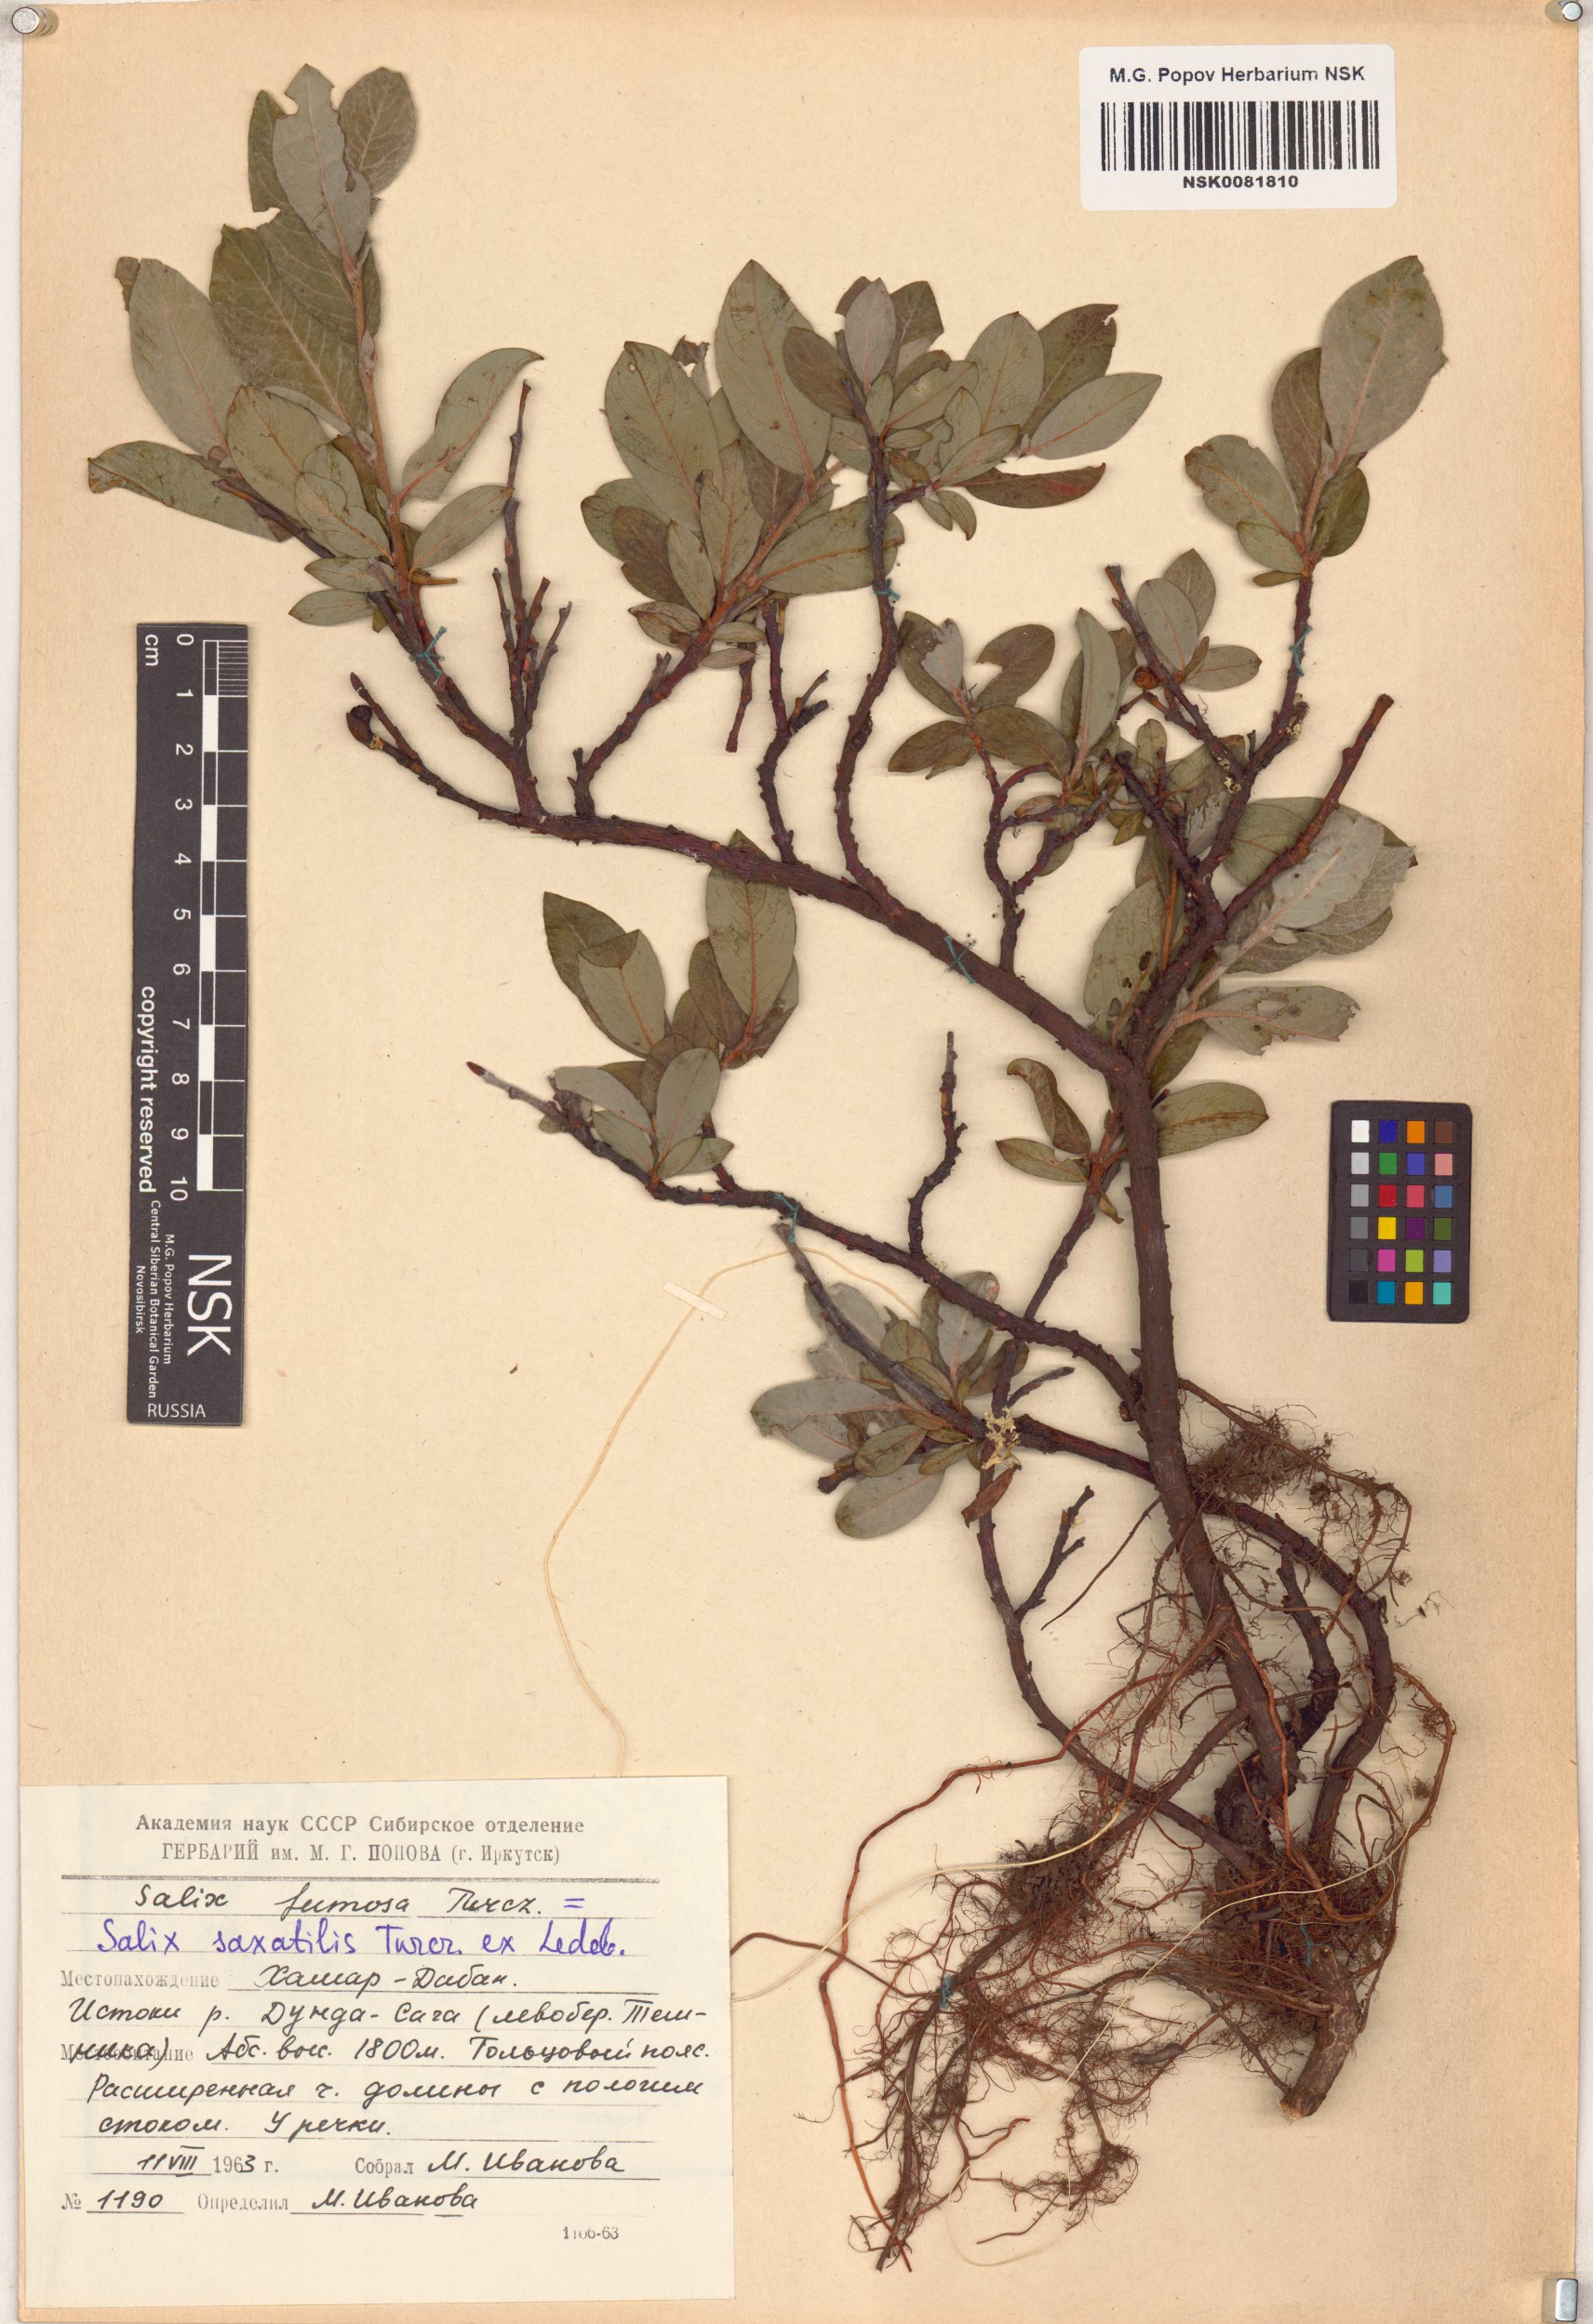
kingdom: Plantae
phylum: Tracheophyta
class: Magnoliopsida
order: Malpighiales
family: Salicaceae
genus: Salix
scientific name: Salix saxatilis
